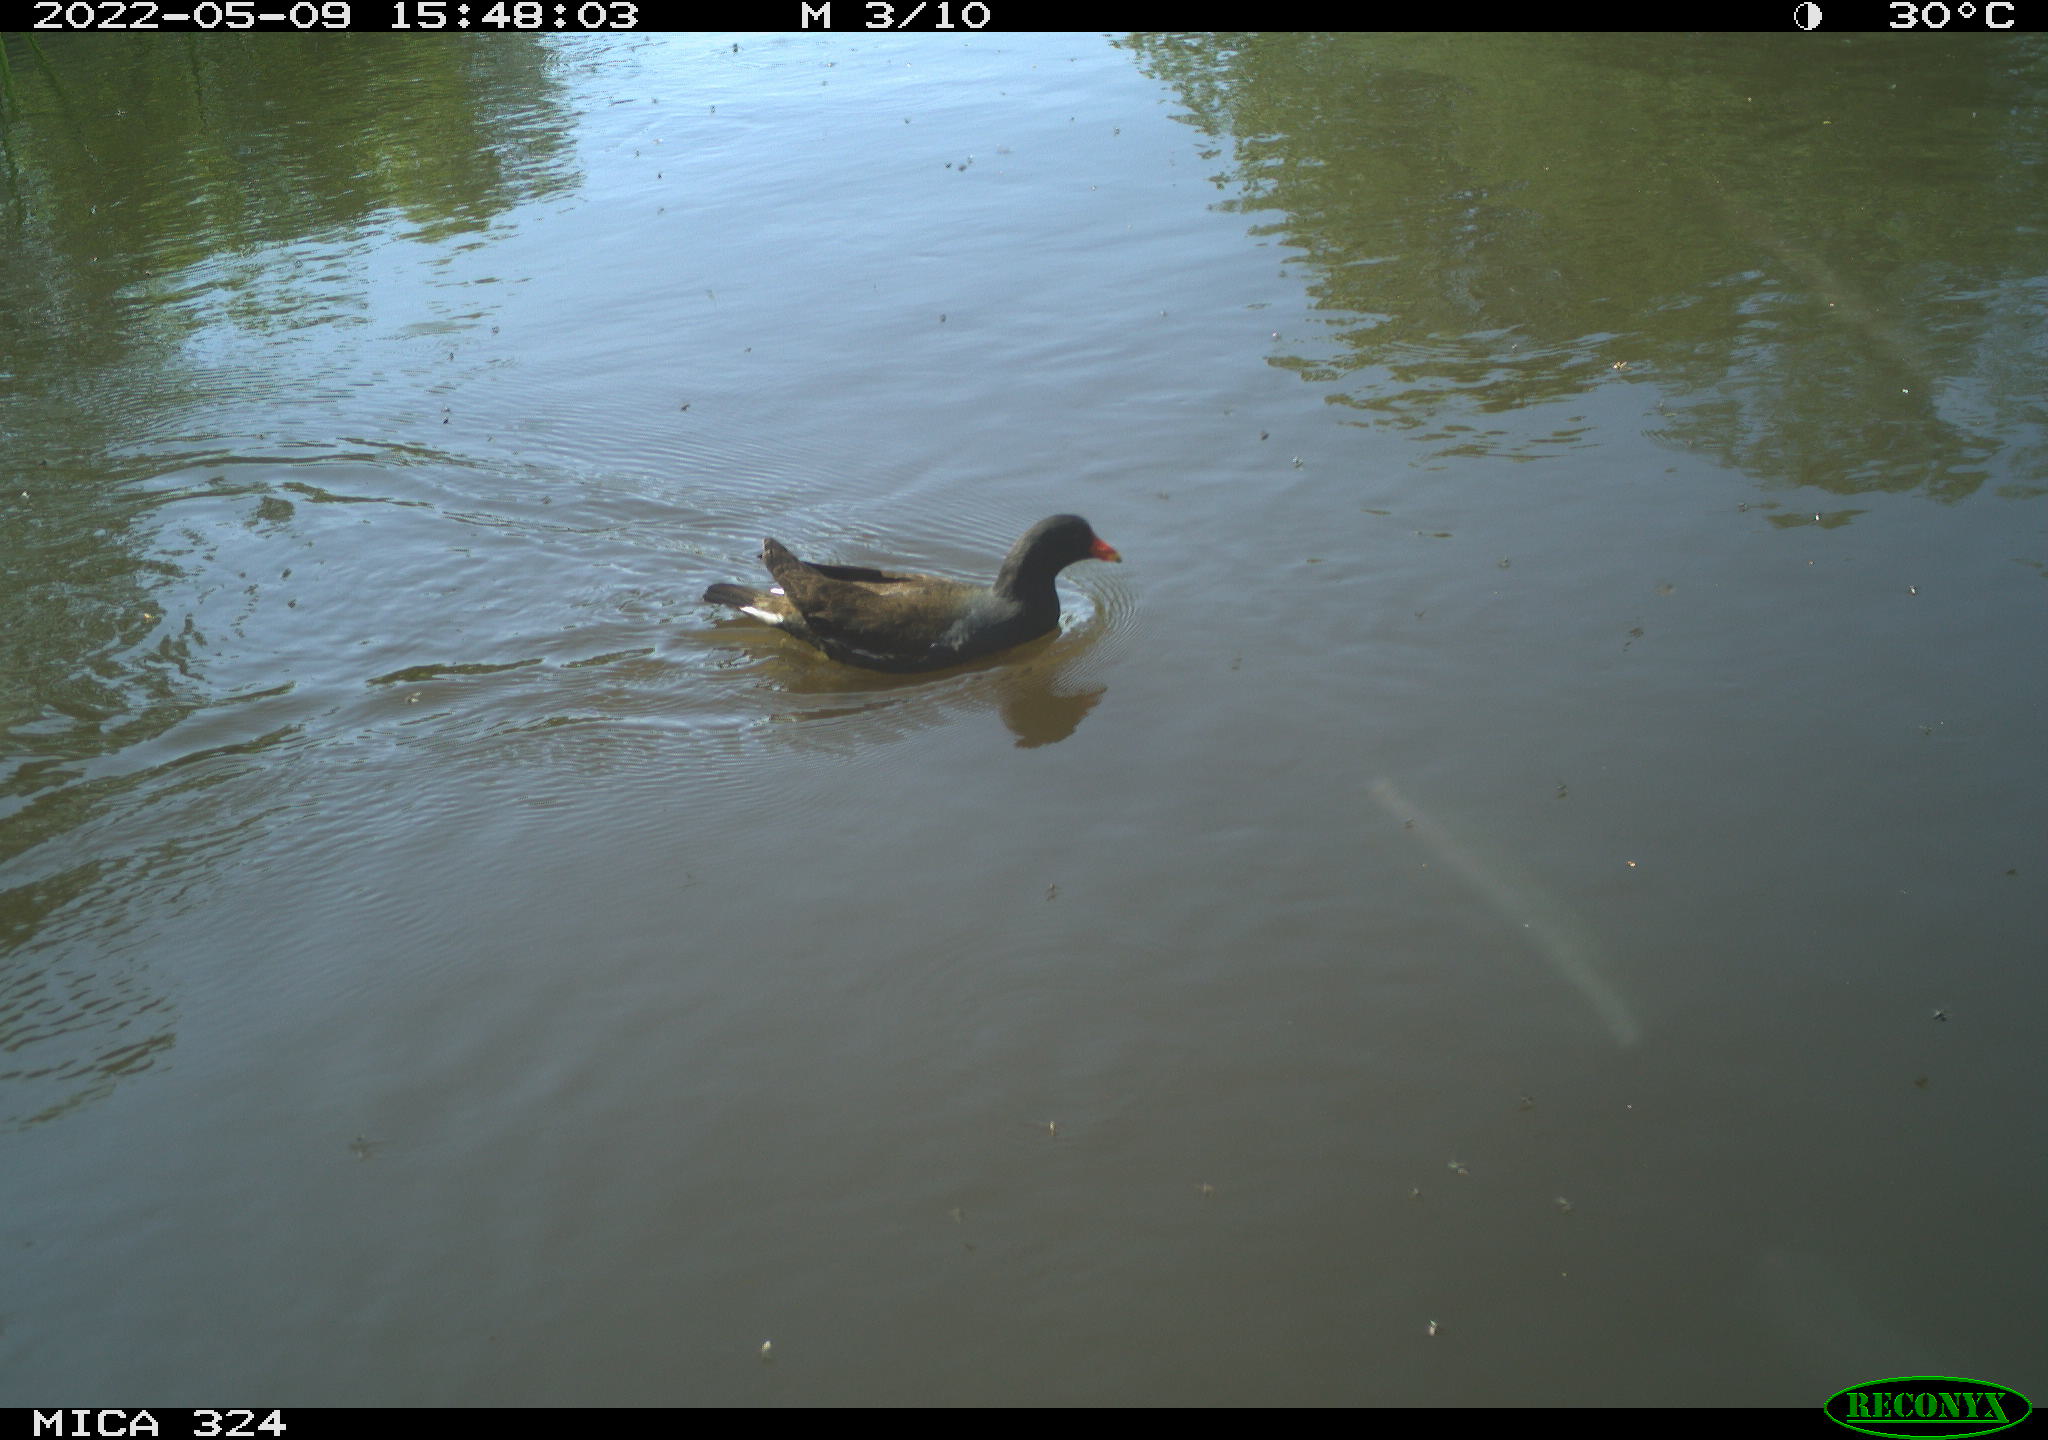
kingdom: Animalia
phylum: Chordata
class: Aves
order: Gruiformes
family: Rallidae
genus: Gallinula
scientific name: Gallinula chloropus
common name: Common moorhen
